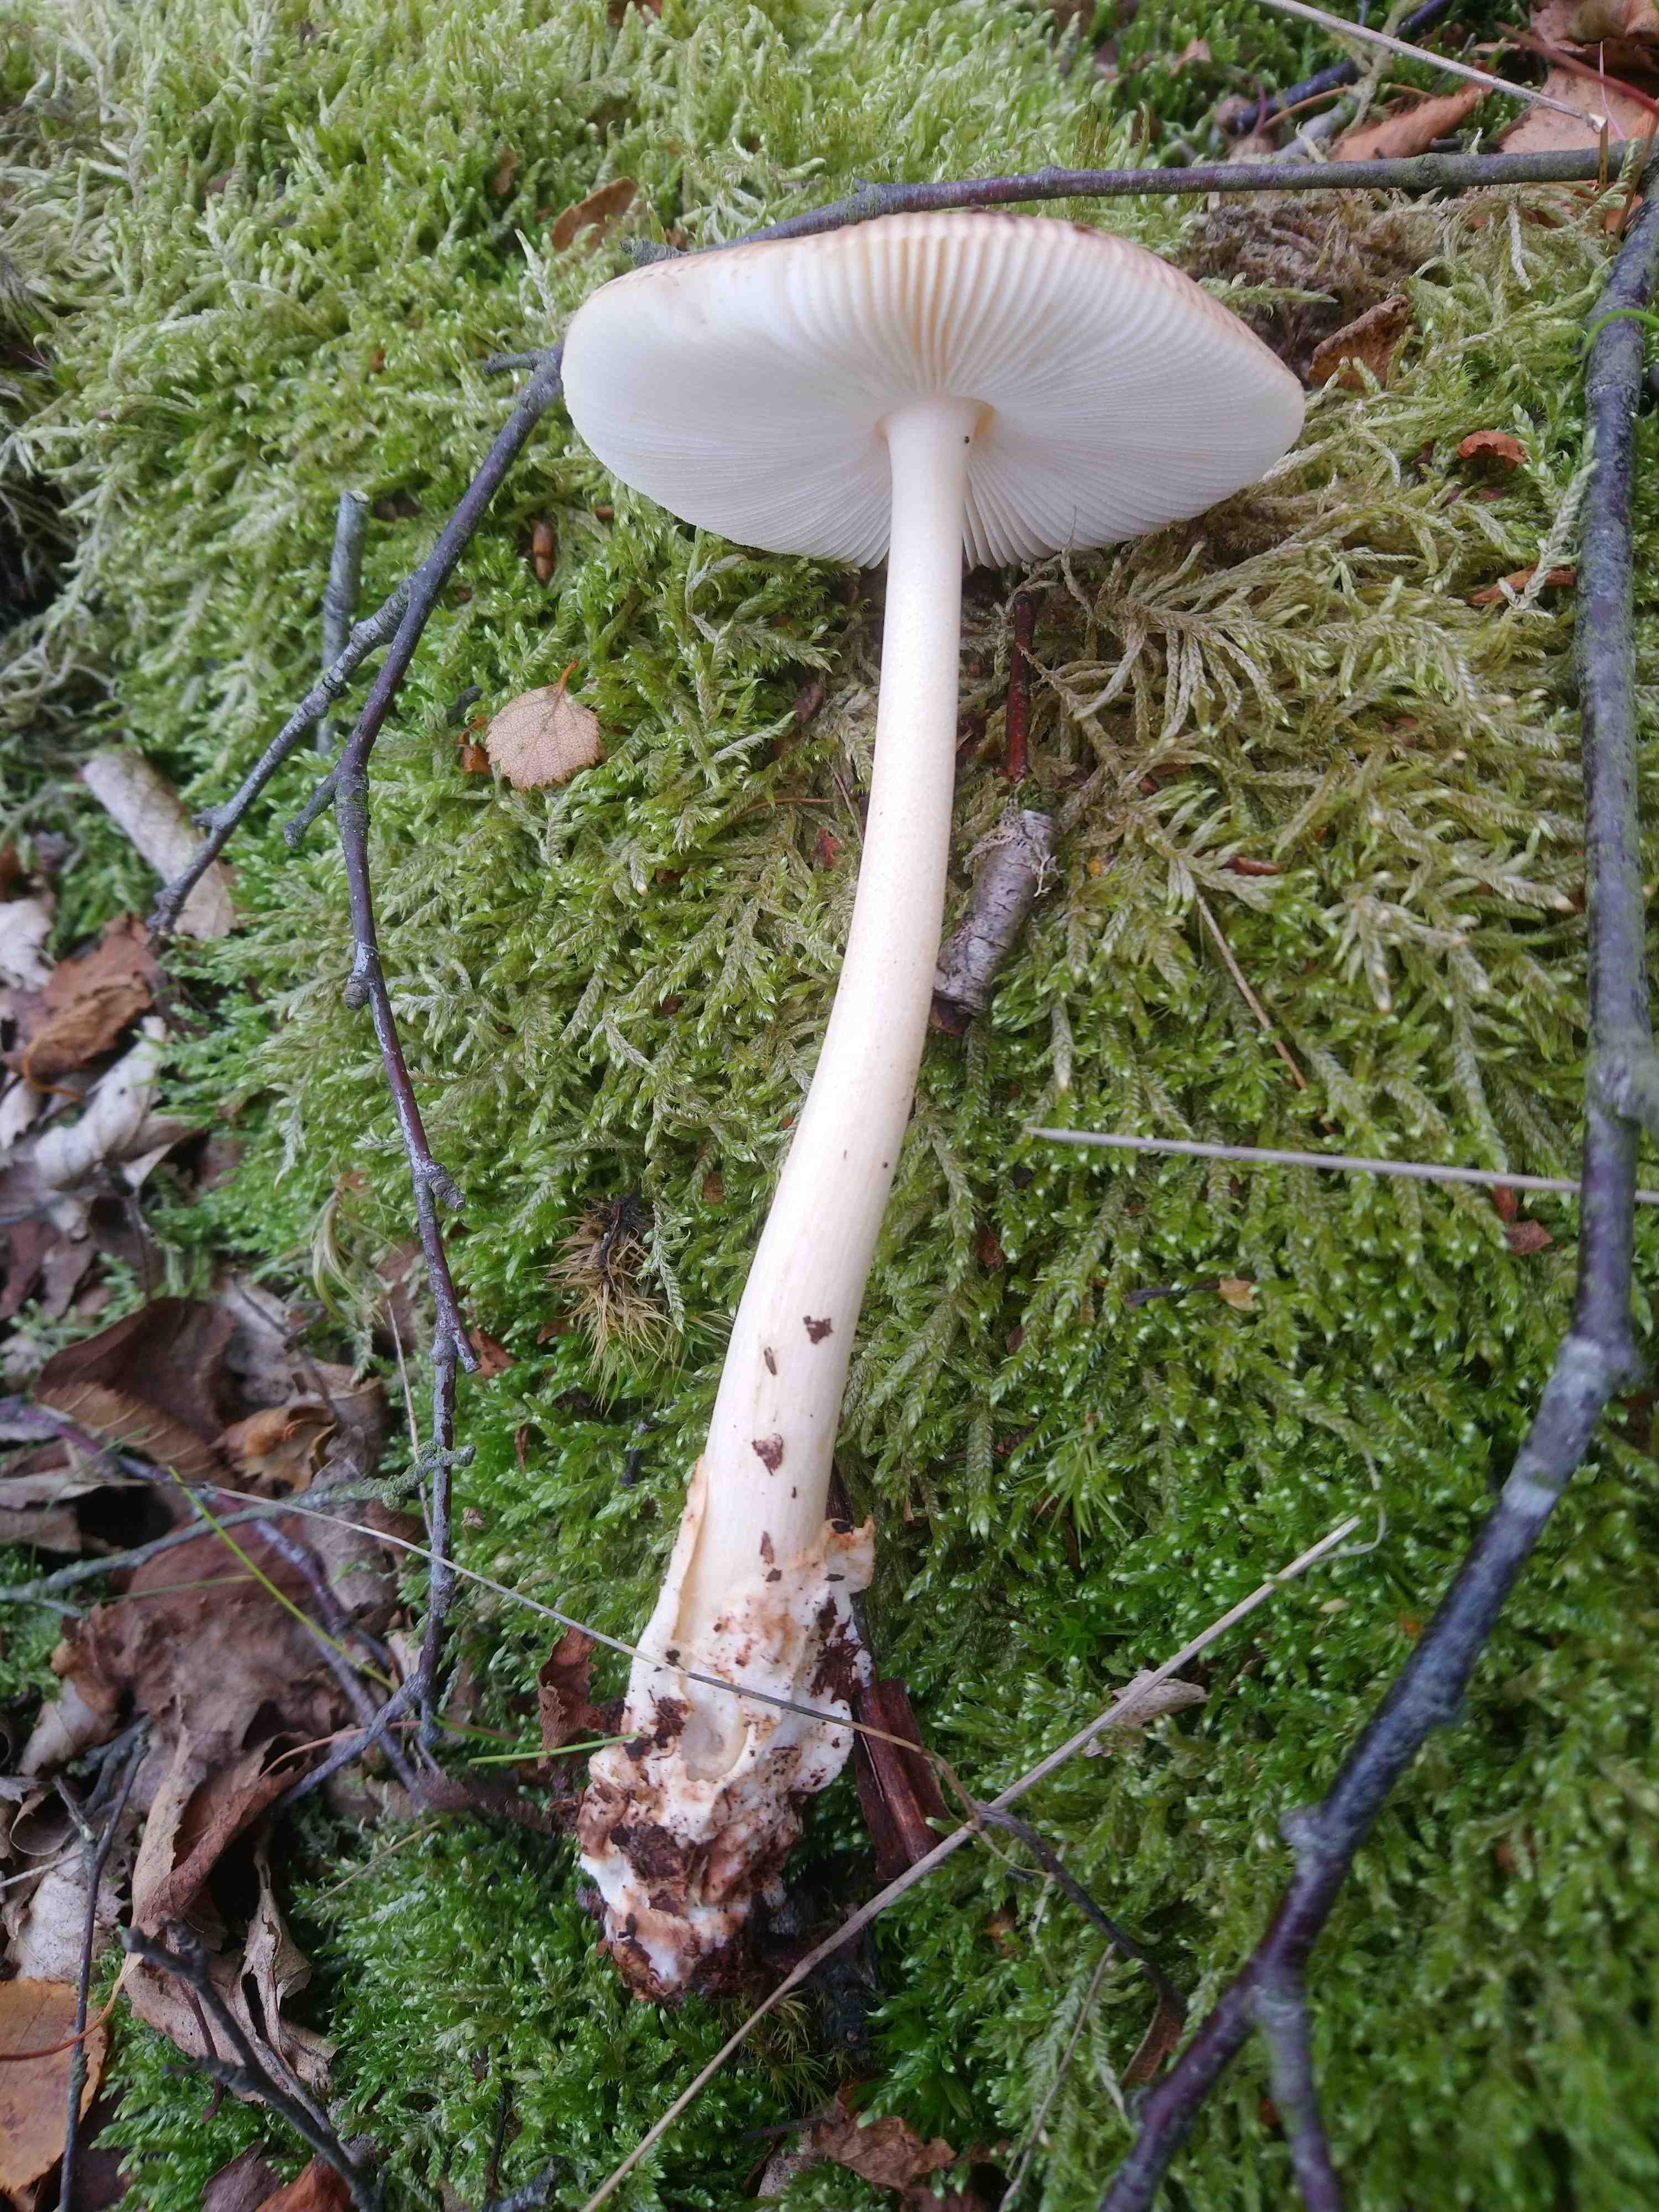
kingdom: Fungi
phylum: Basidiomycota
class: Agaricomycetes
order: Agaricales
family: Amanitaceae
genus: Amanita
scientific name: Amanita fulva
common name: brun kam-fluesvamp
